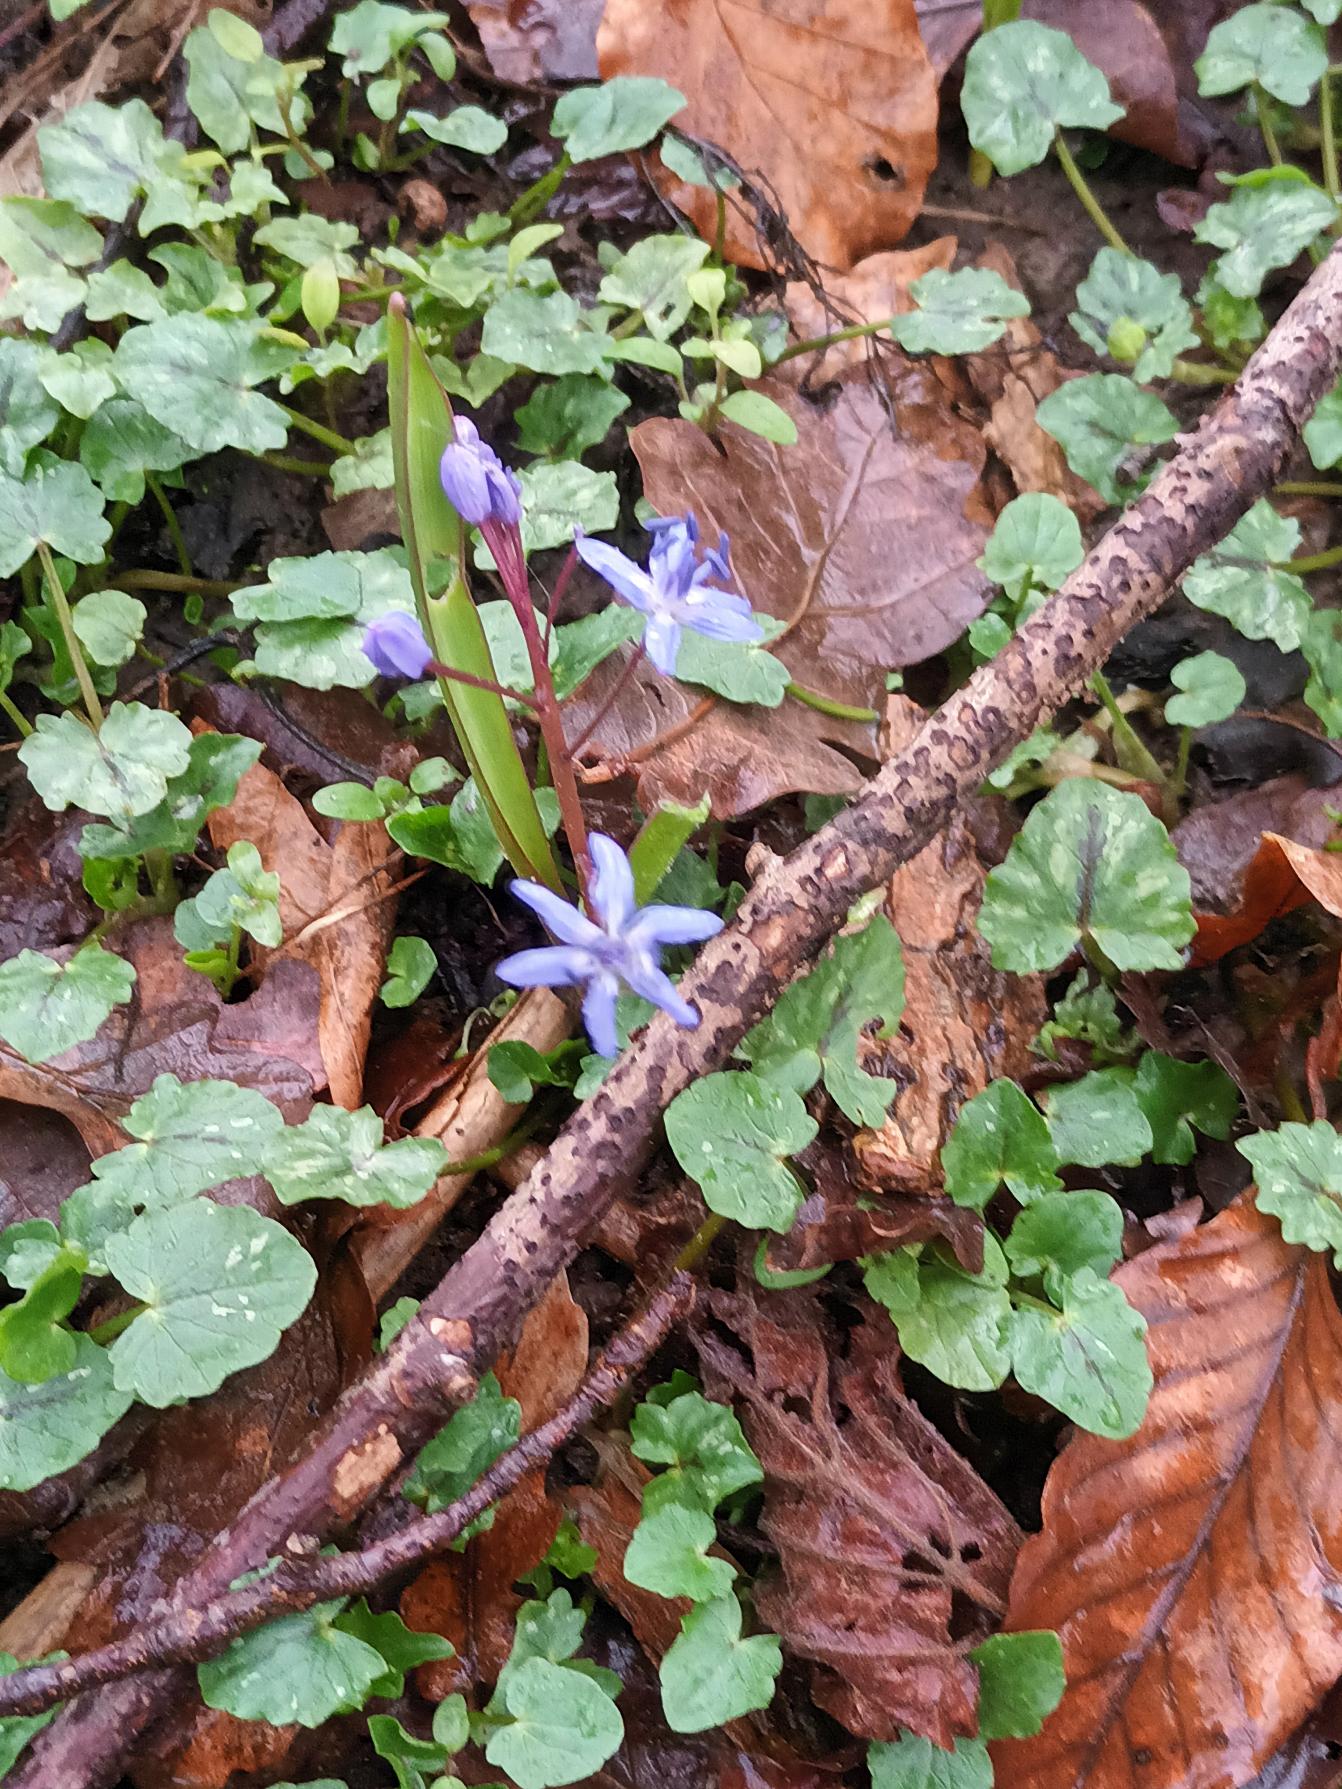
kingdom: Plantae
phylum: Tracheophyta
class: Liliopsida
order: Asparagales
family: Asparagaceae
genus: Scilla
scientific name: Scilla bifolia
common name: Tobladet skilla
